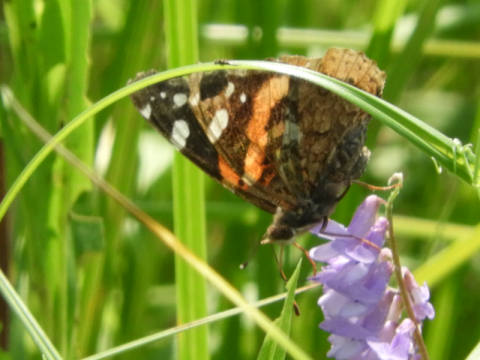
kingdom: Animalia
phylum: Arthropoda
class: Insecta
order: Lepidoptera
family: Nymphalidae
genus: Vanessa
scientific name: Vanessa atalanta
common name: Red Admiral
